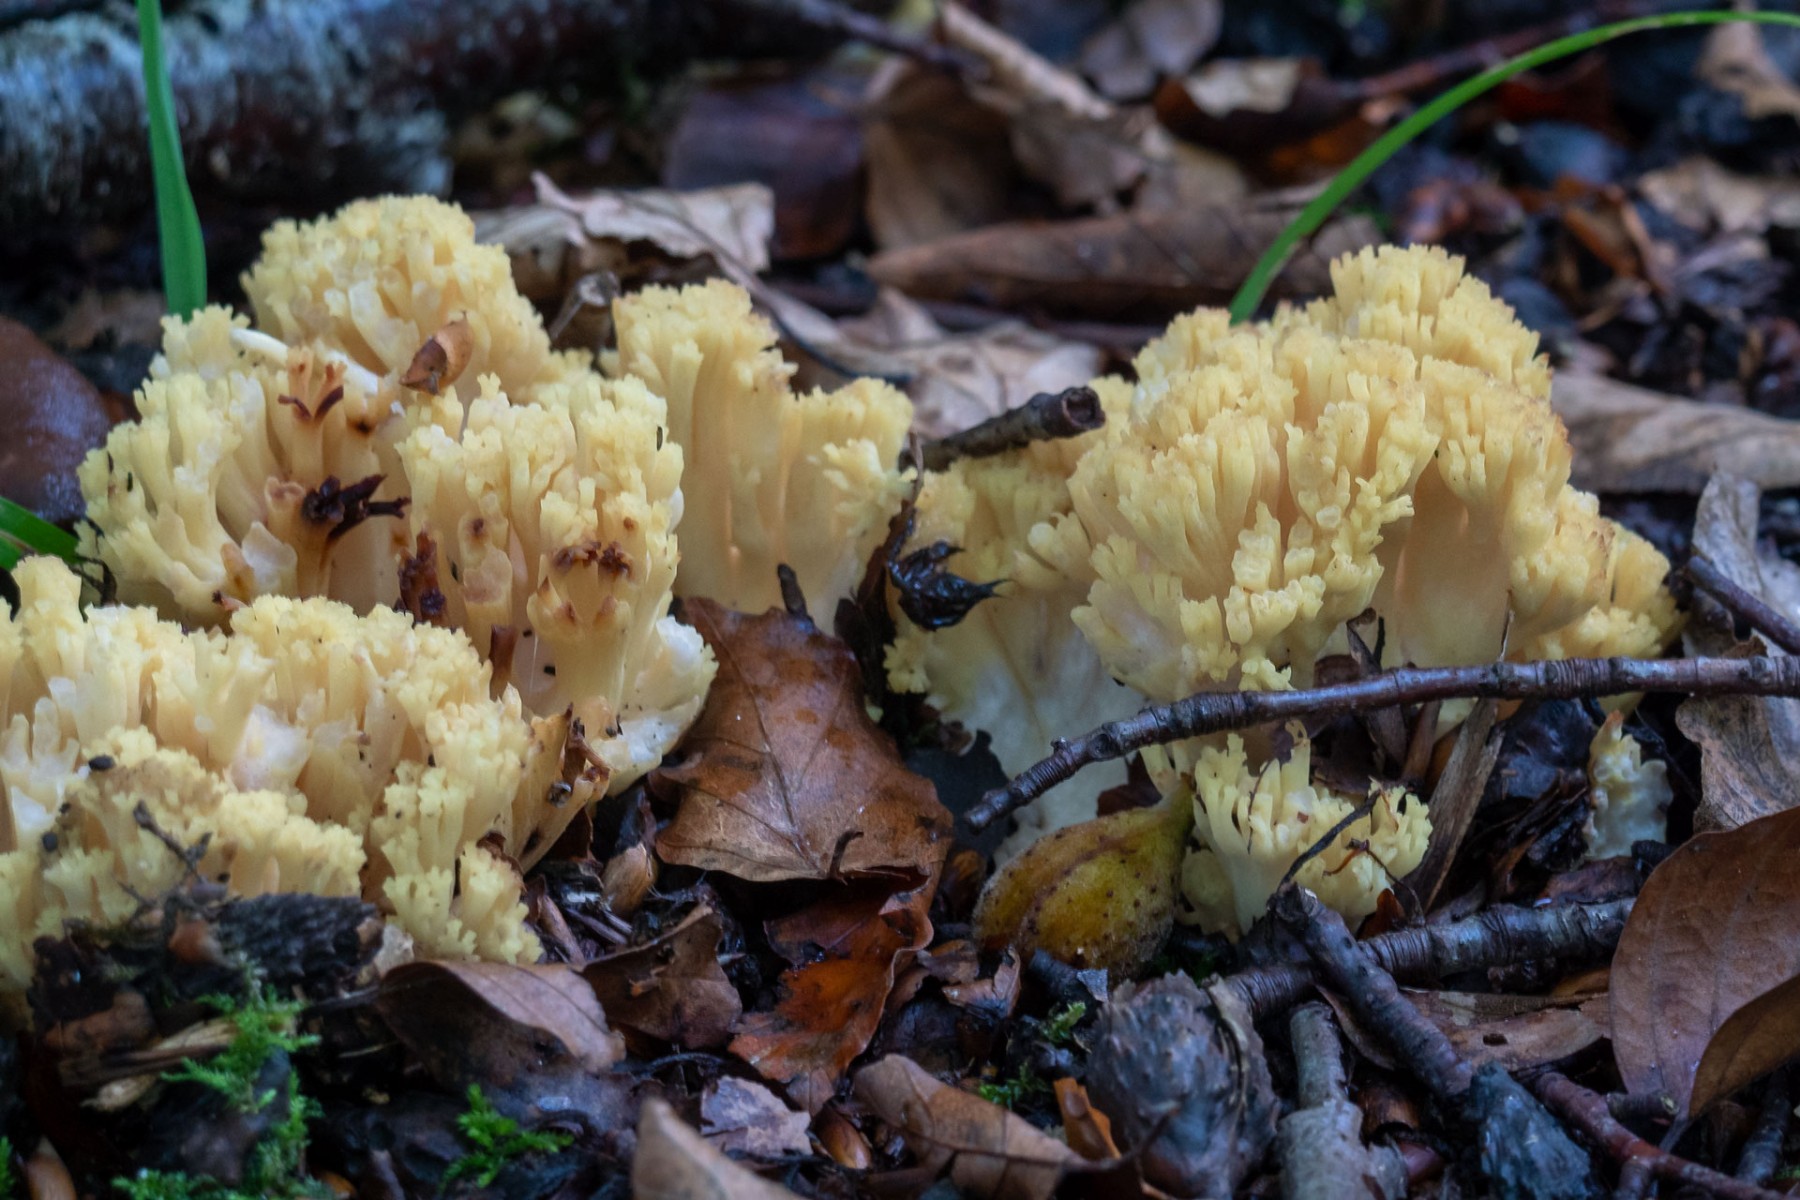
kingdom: Fungi
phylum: Basidiomycota
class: Agaricomycetes
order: Gomphales
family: Gomphaceae
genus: Ramaria
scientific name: Ramaria sanguinea
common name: blodplettet koralsvamp
